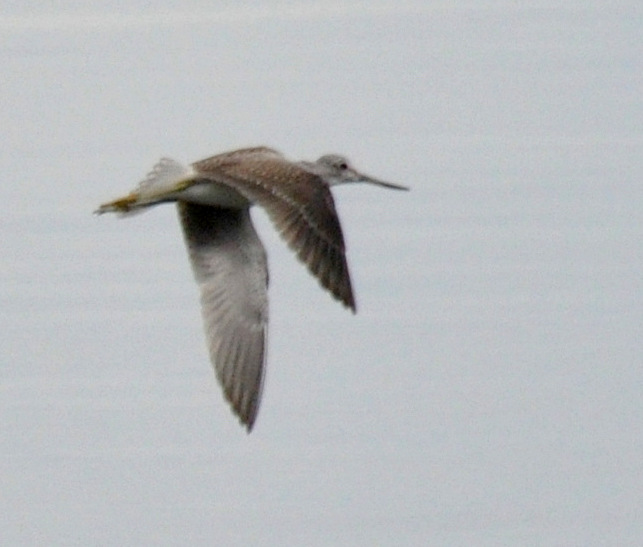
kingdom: Animalia
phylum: Chordata
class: Aves
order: Charadriiformes
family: Scolopacidae
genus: Tringa
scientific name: Tringa nebularia
